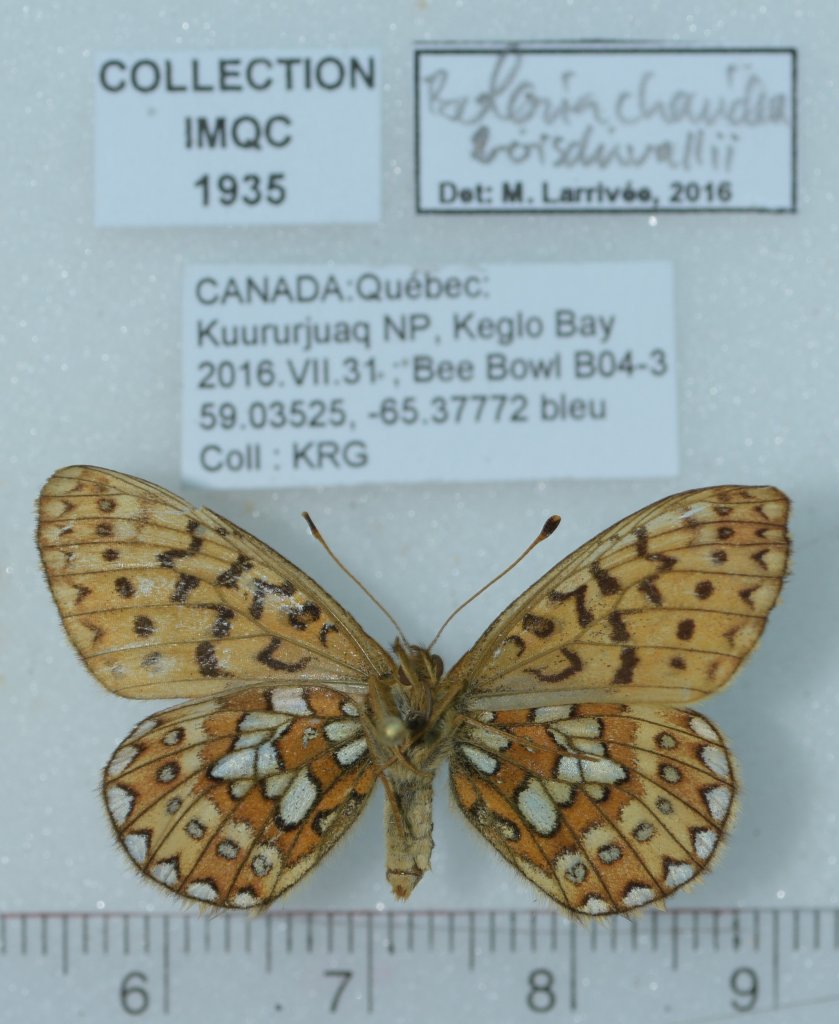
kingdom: Animalia
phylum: Arthropoda
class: Insecta
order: Lepidoptera
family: Nymphalidae
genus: Boloria
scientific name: Boloria chariclea
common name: Arctic Fritillary
